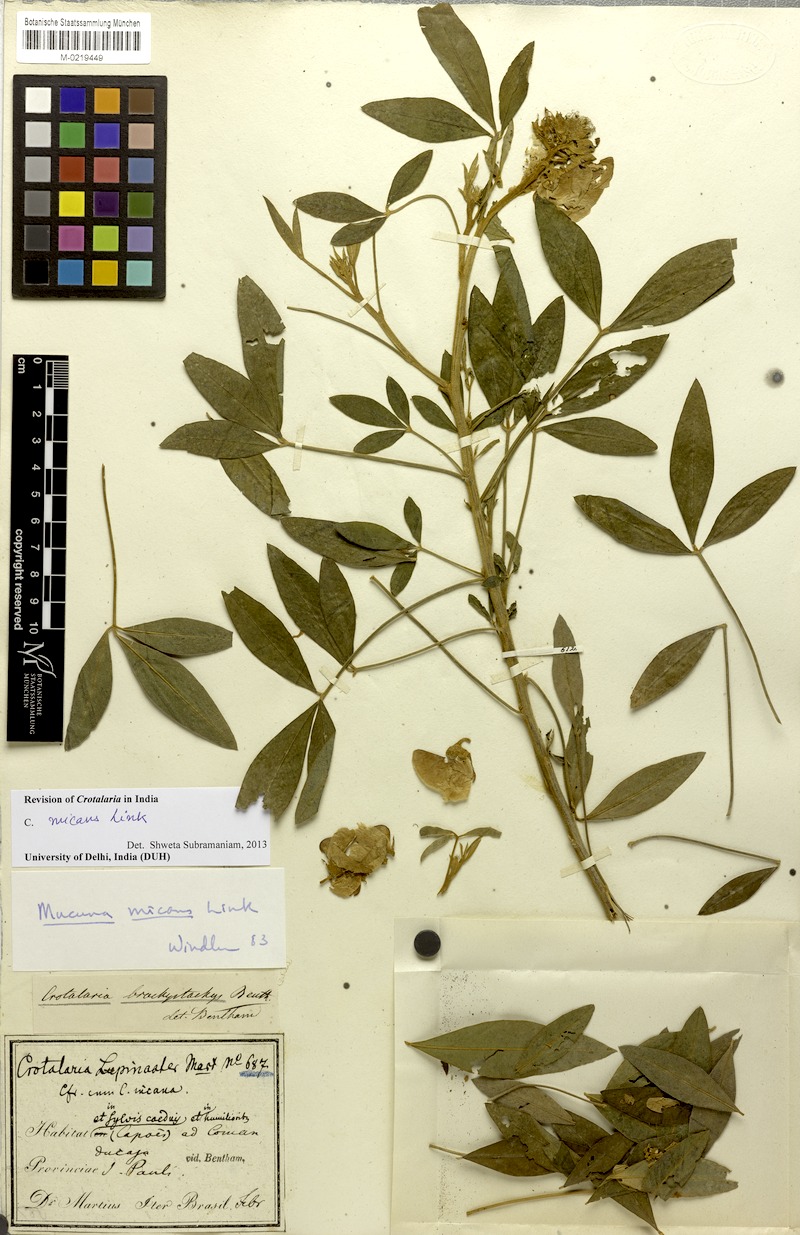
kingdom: Plantae
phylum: Tracheophyta
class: Magnoliopsida
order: Fabales
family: Fabaceae
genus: Crotalaria
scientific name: Crotalaria micans
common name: Caracas rattlebox
